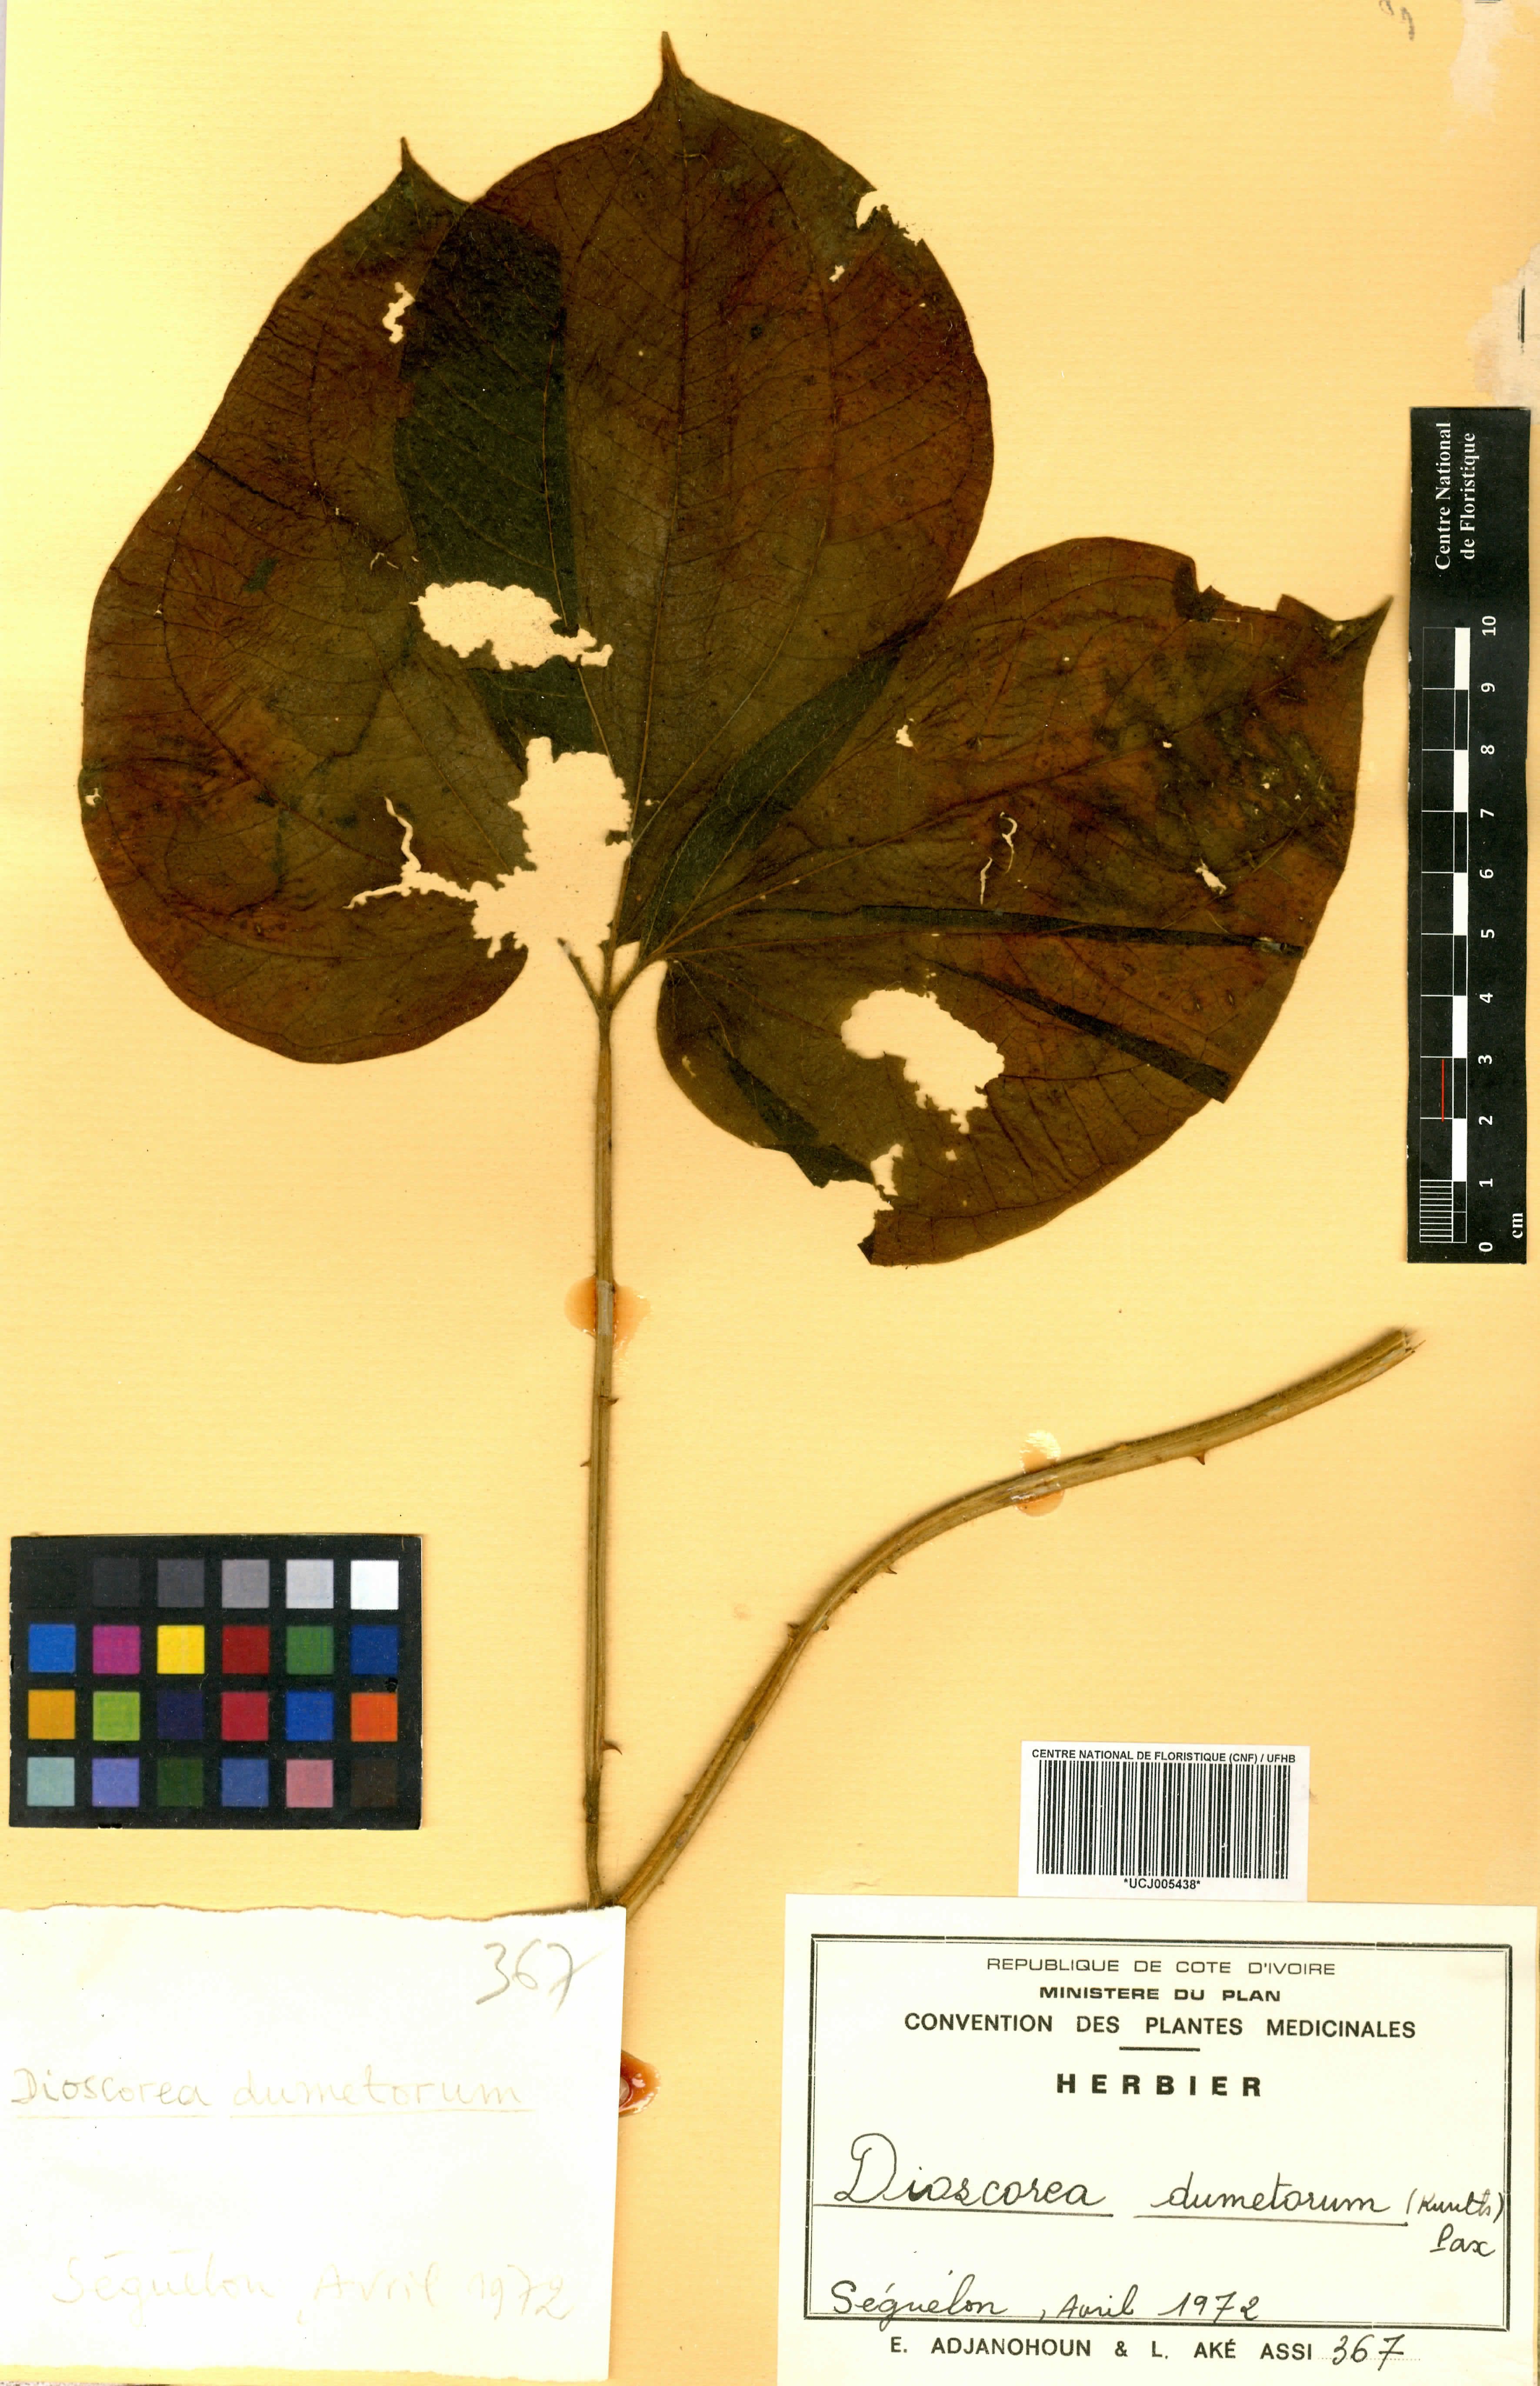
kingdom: Plantae
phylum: Tracheophyta
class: Liliopsida
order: Dioscoreales
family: Dioscoreaceae
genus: Dioscorea
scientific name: Dioscorea dumetorum
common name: African bitter yam
